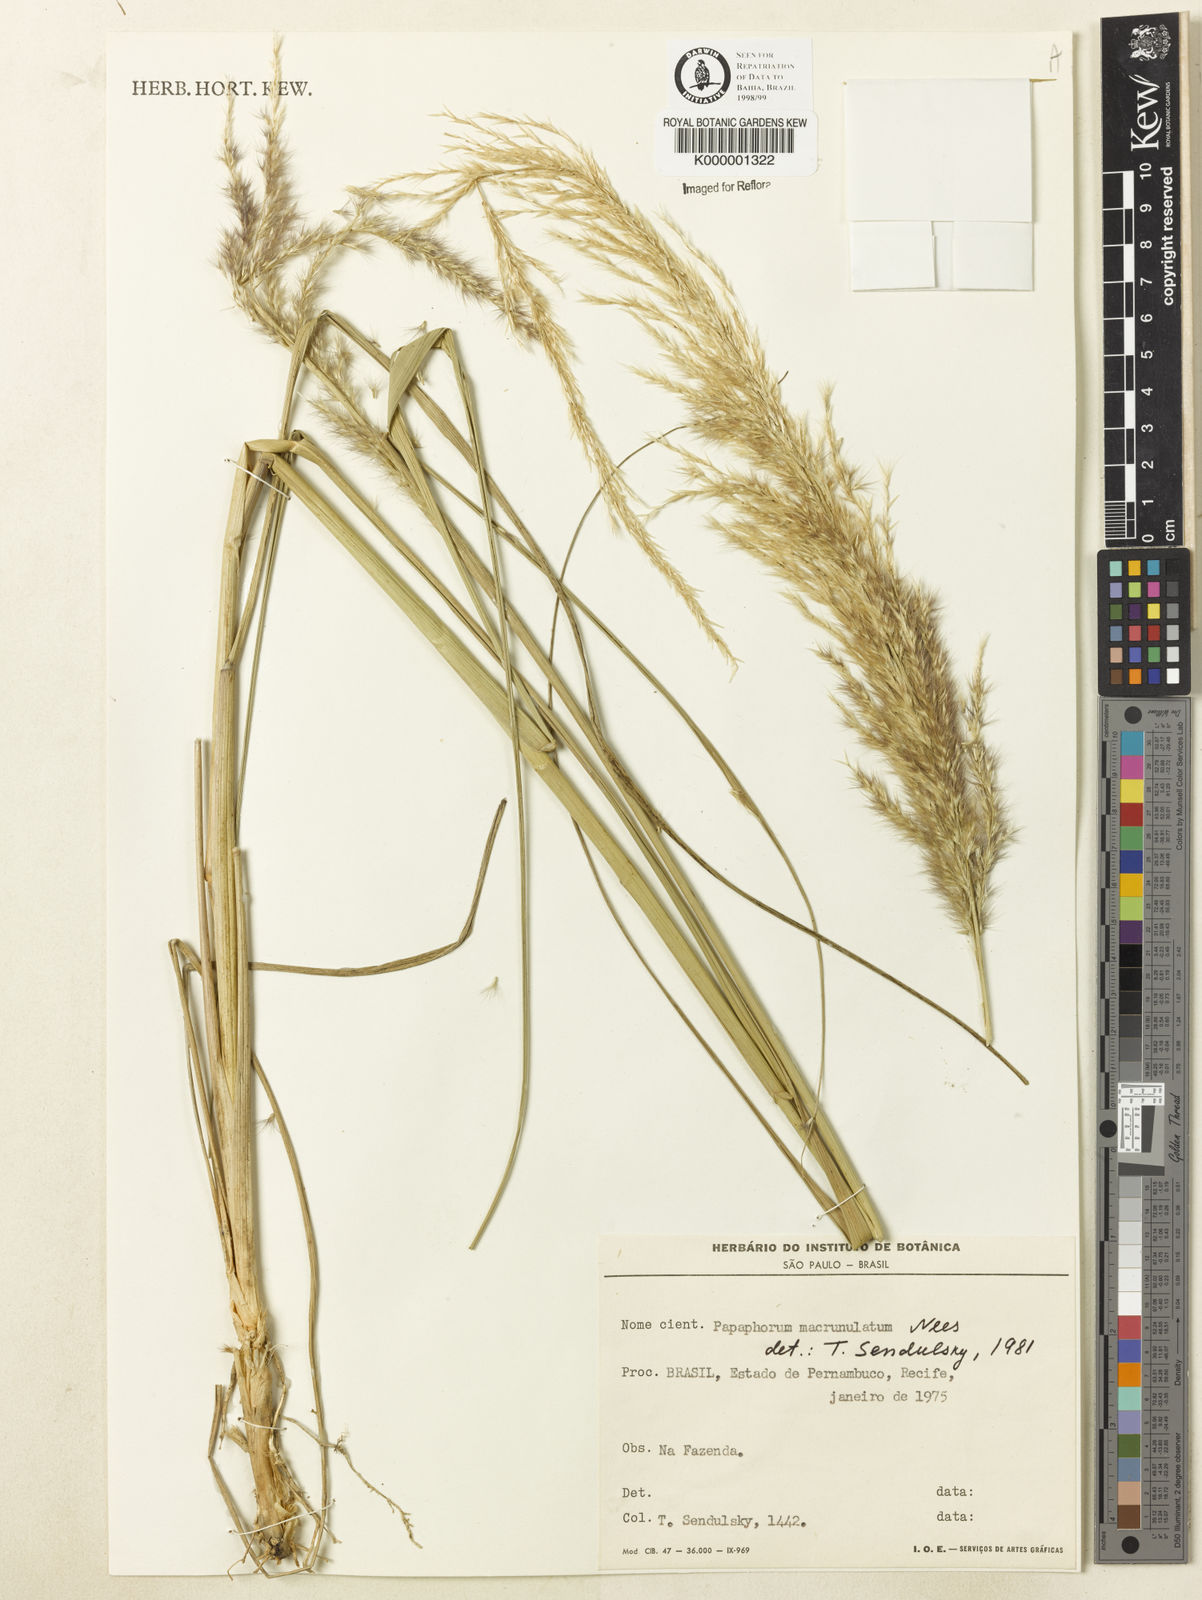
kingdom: Plantae
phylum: Tracheophyta
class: Liliopsida
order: Poales
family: Poaceae
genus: Pappophorum
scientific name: Pappophorum pappiferum
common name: Crabgrass
